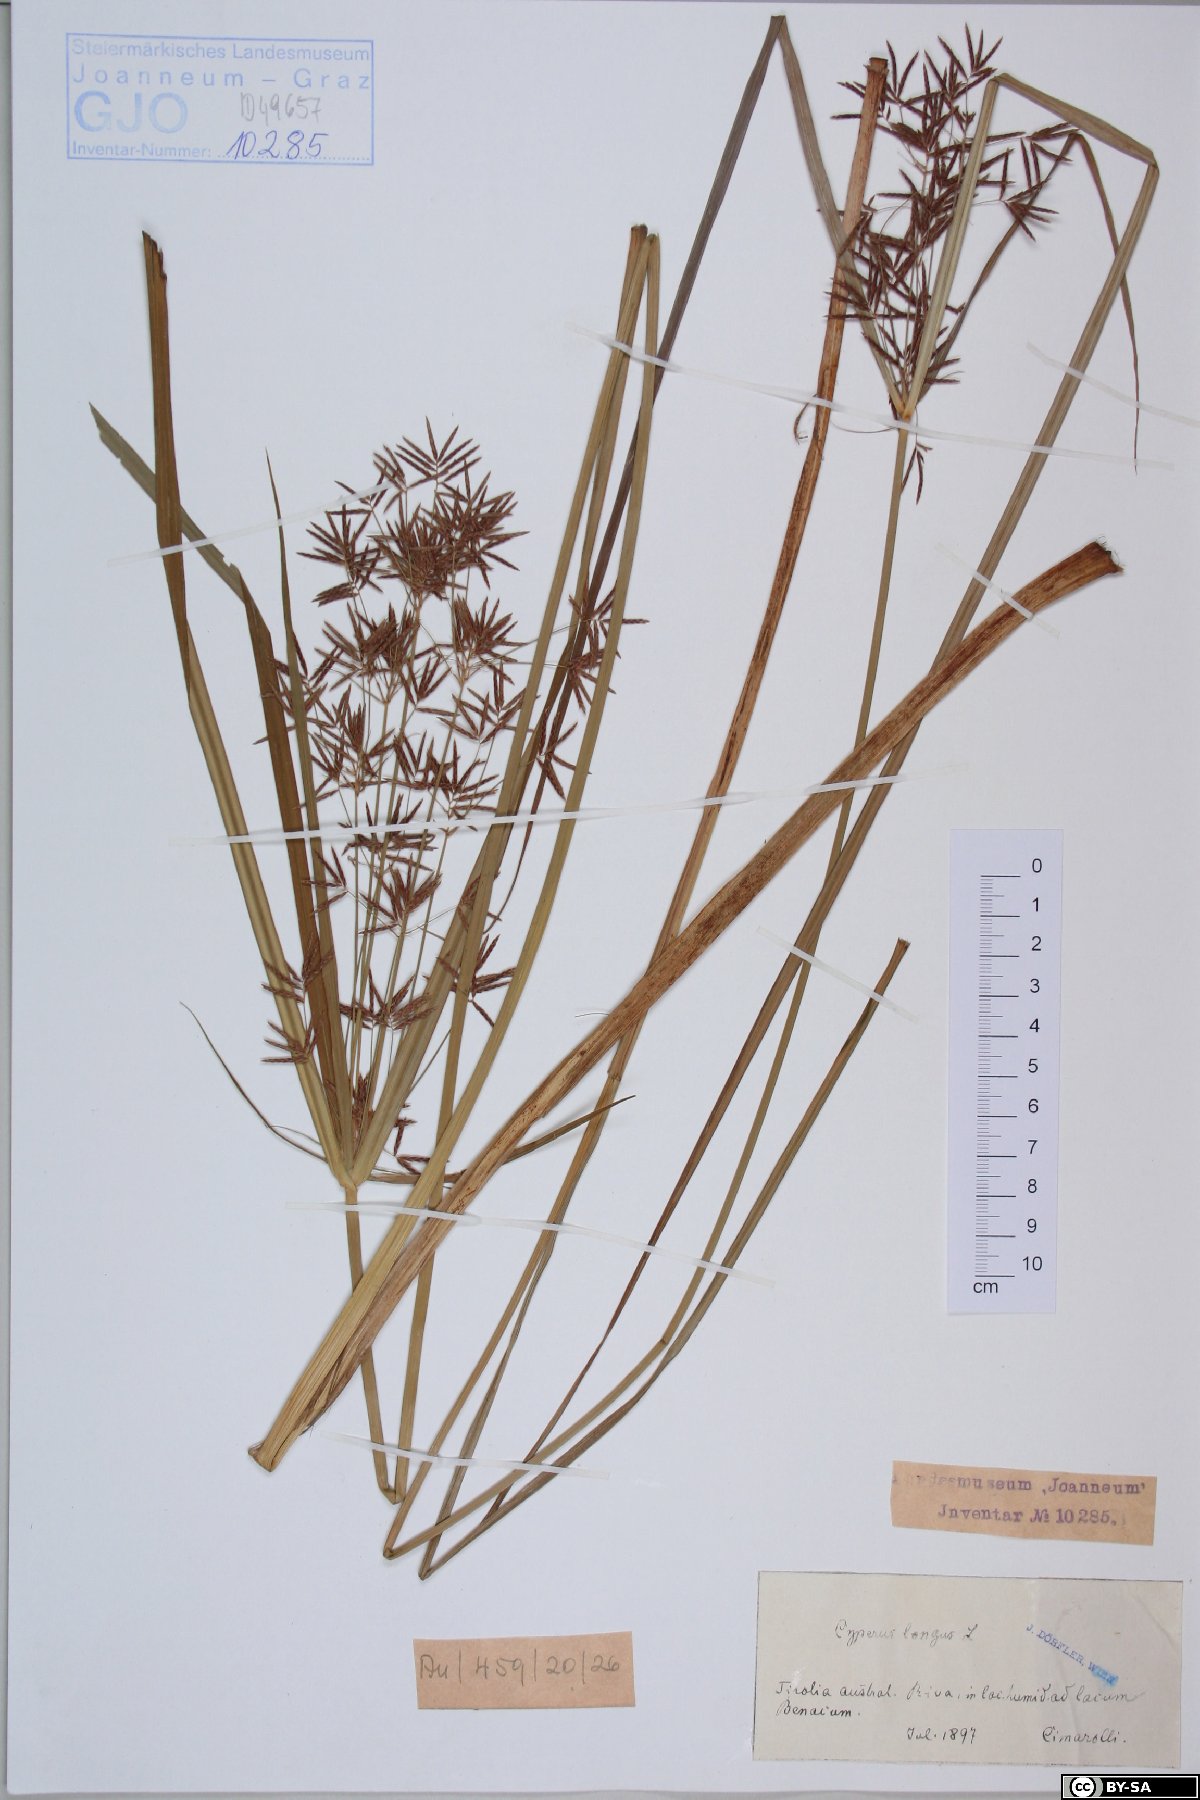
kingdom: Plantae
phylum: Tracheophyta
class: Liliopsida
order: Poales
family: Cyperaceae
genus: Cyperus
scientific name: Cyperus longus
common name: Galingale
